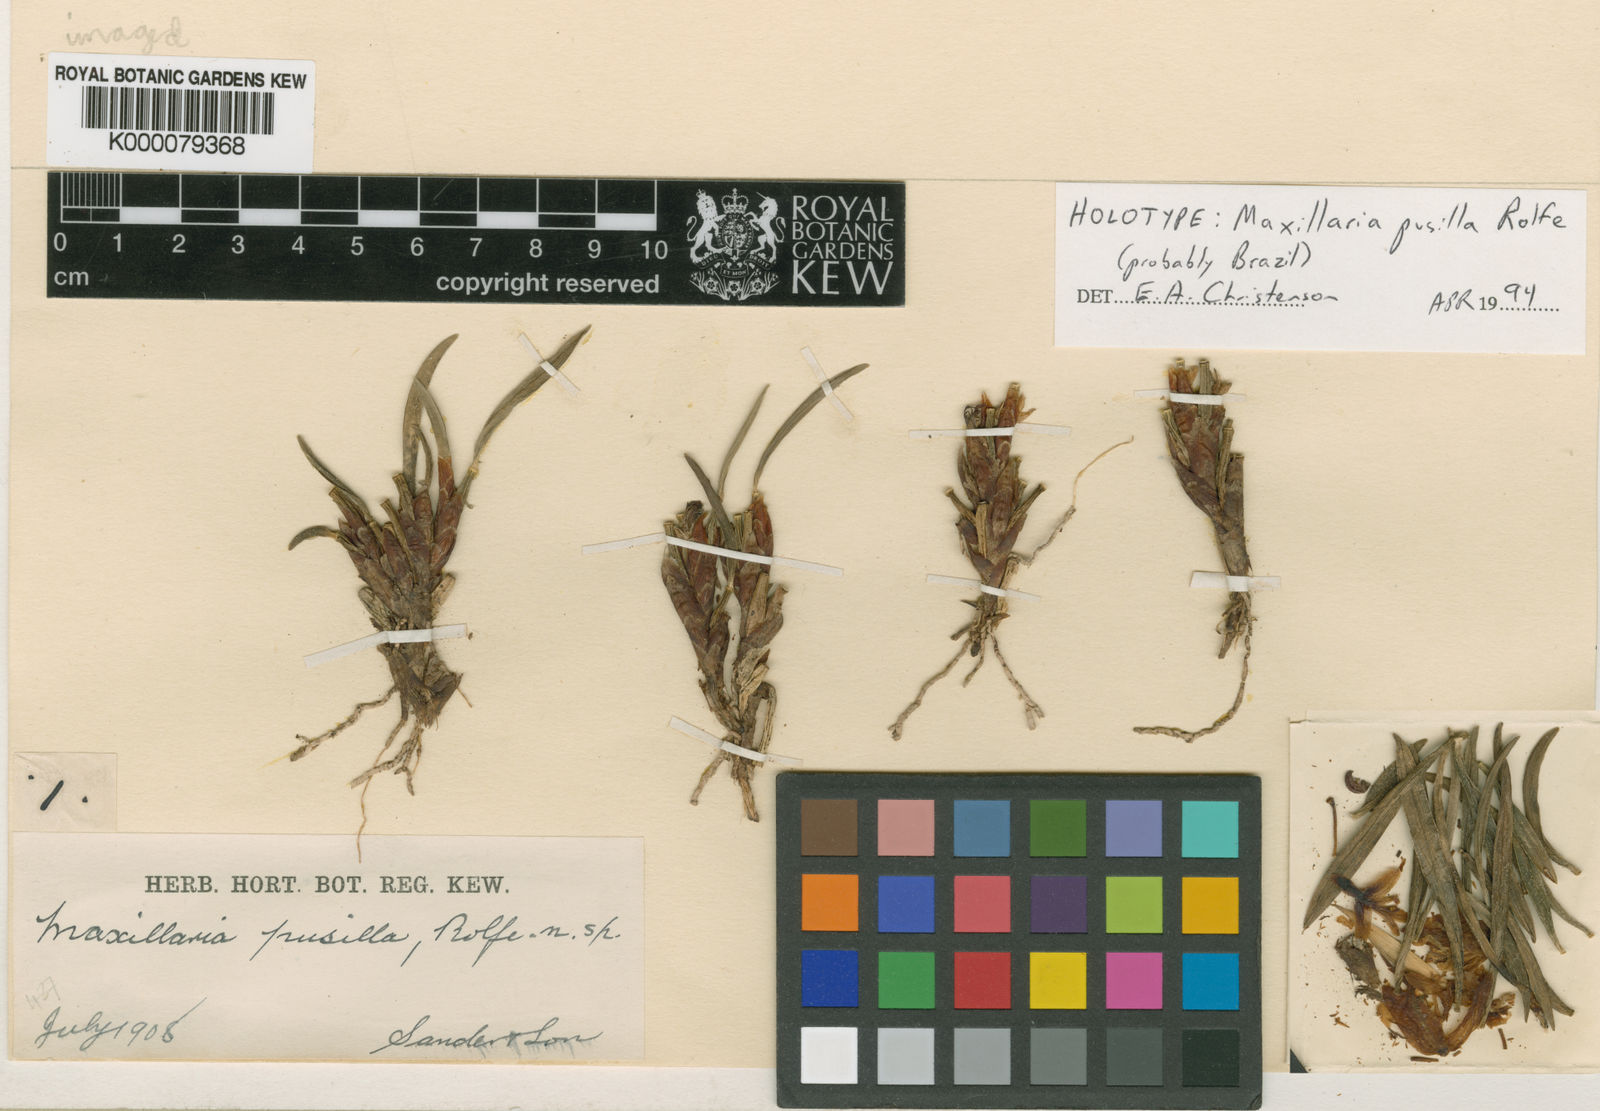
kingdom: Plantae
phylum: Tracheophyta
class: Liliopsida
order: Asparagales
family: Orchidaceae
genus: Maxillaria
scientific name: Maxillaria pumila
